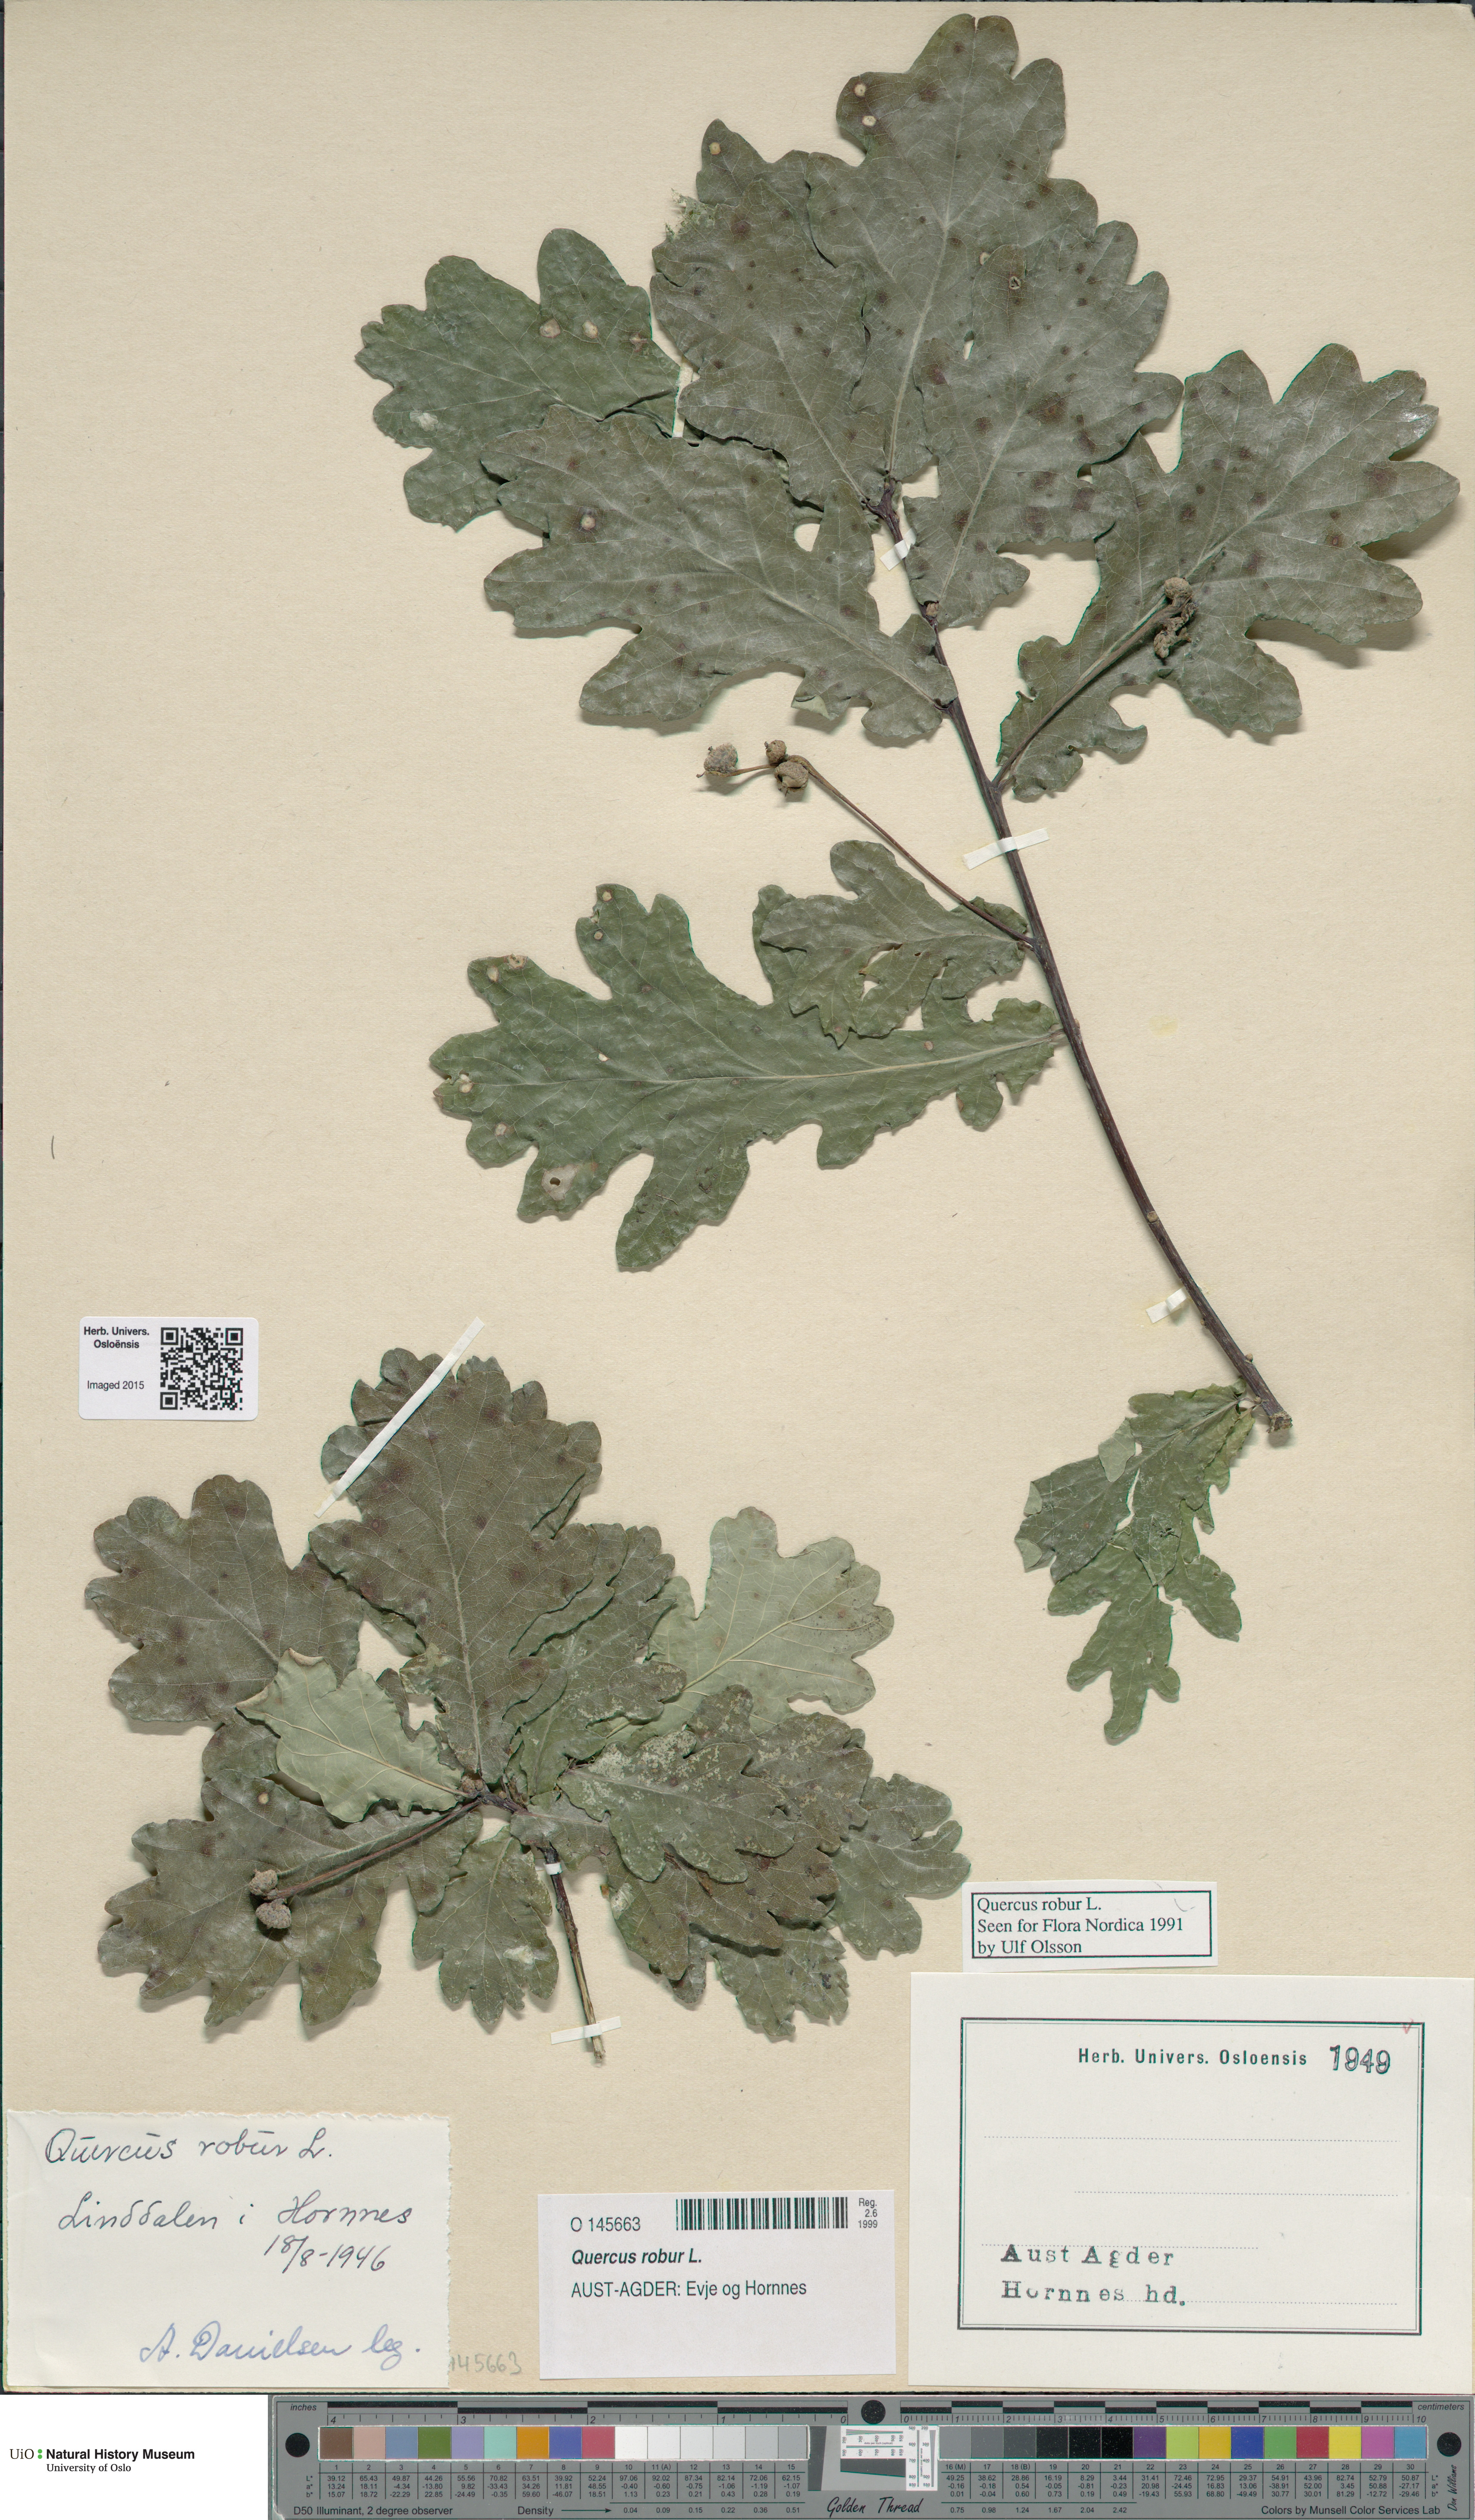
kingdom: Plantae
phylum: Tracheophyta
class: Magnoliopsida
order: Fagales
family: Fagaceae
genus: Quercus
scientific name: Quercus robur
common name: Pedunculate oak
